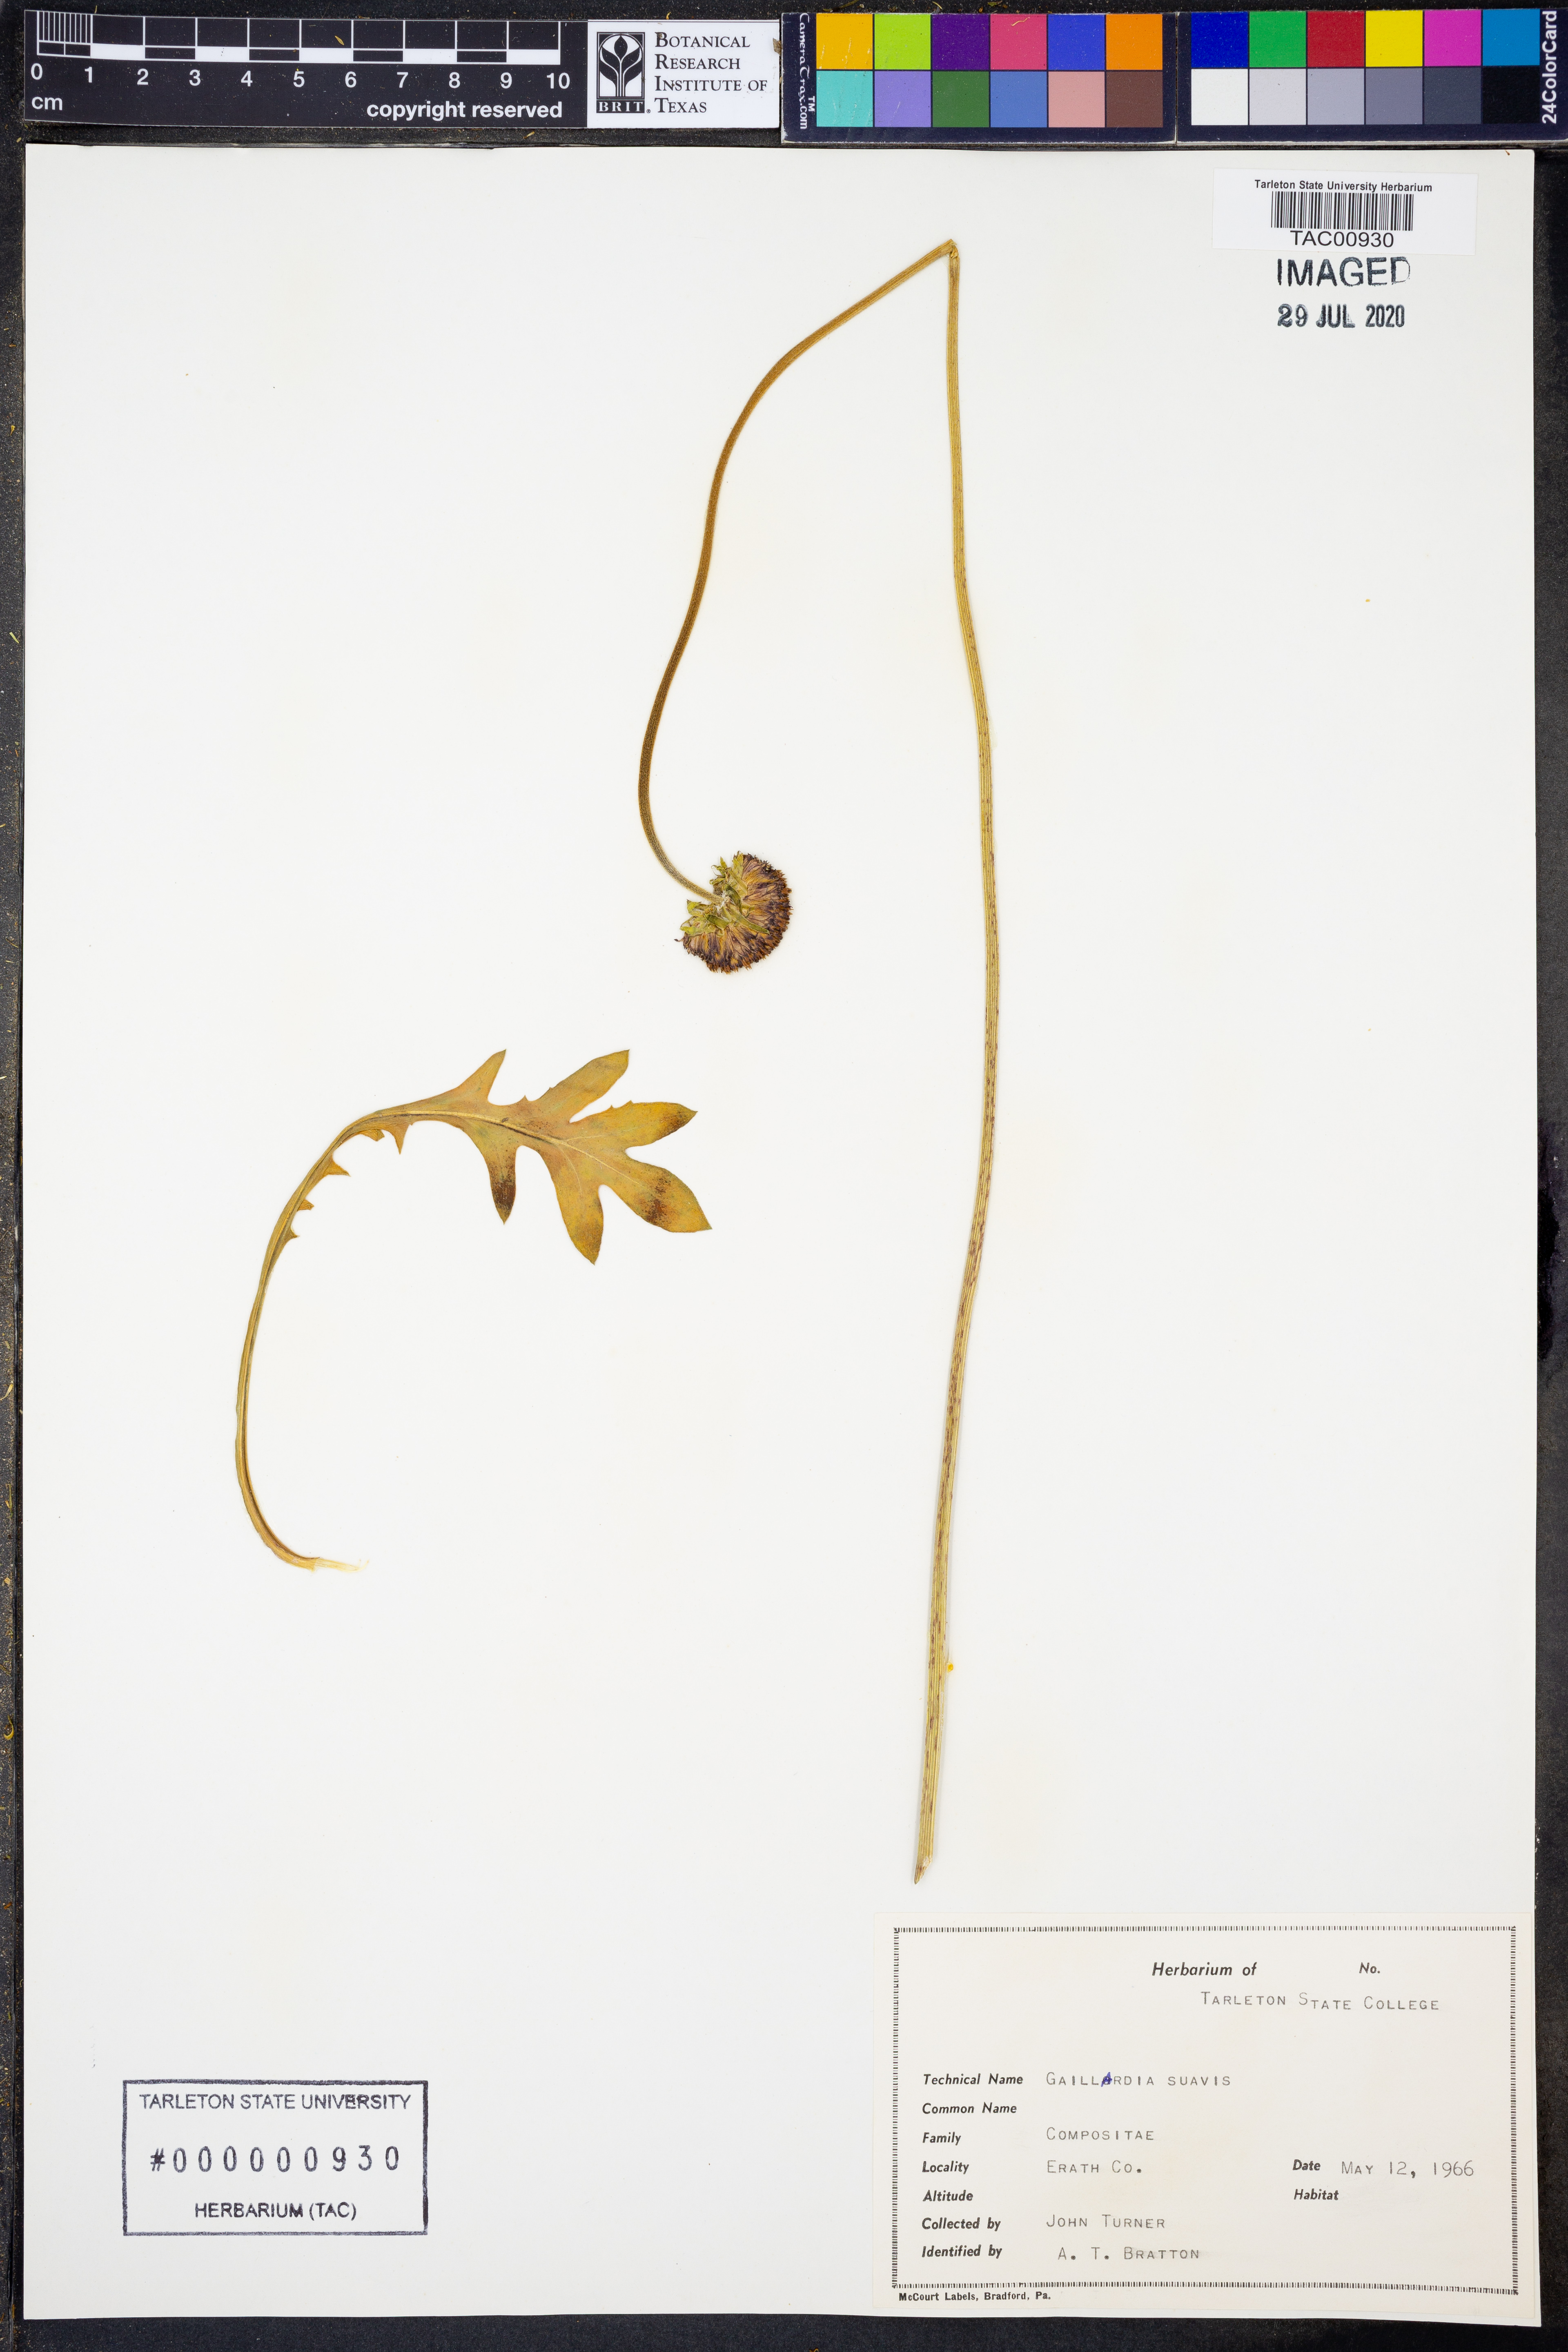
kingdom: Plantae
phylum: Tracheophyta
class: Magnoliopsida
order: Asterales
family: Asteraceae
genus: Gaillardia
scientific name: Gaillardia suavis
